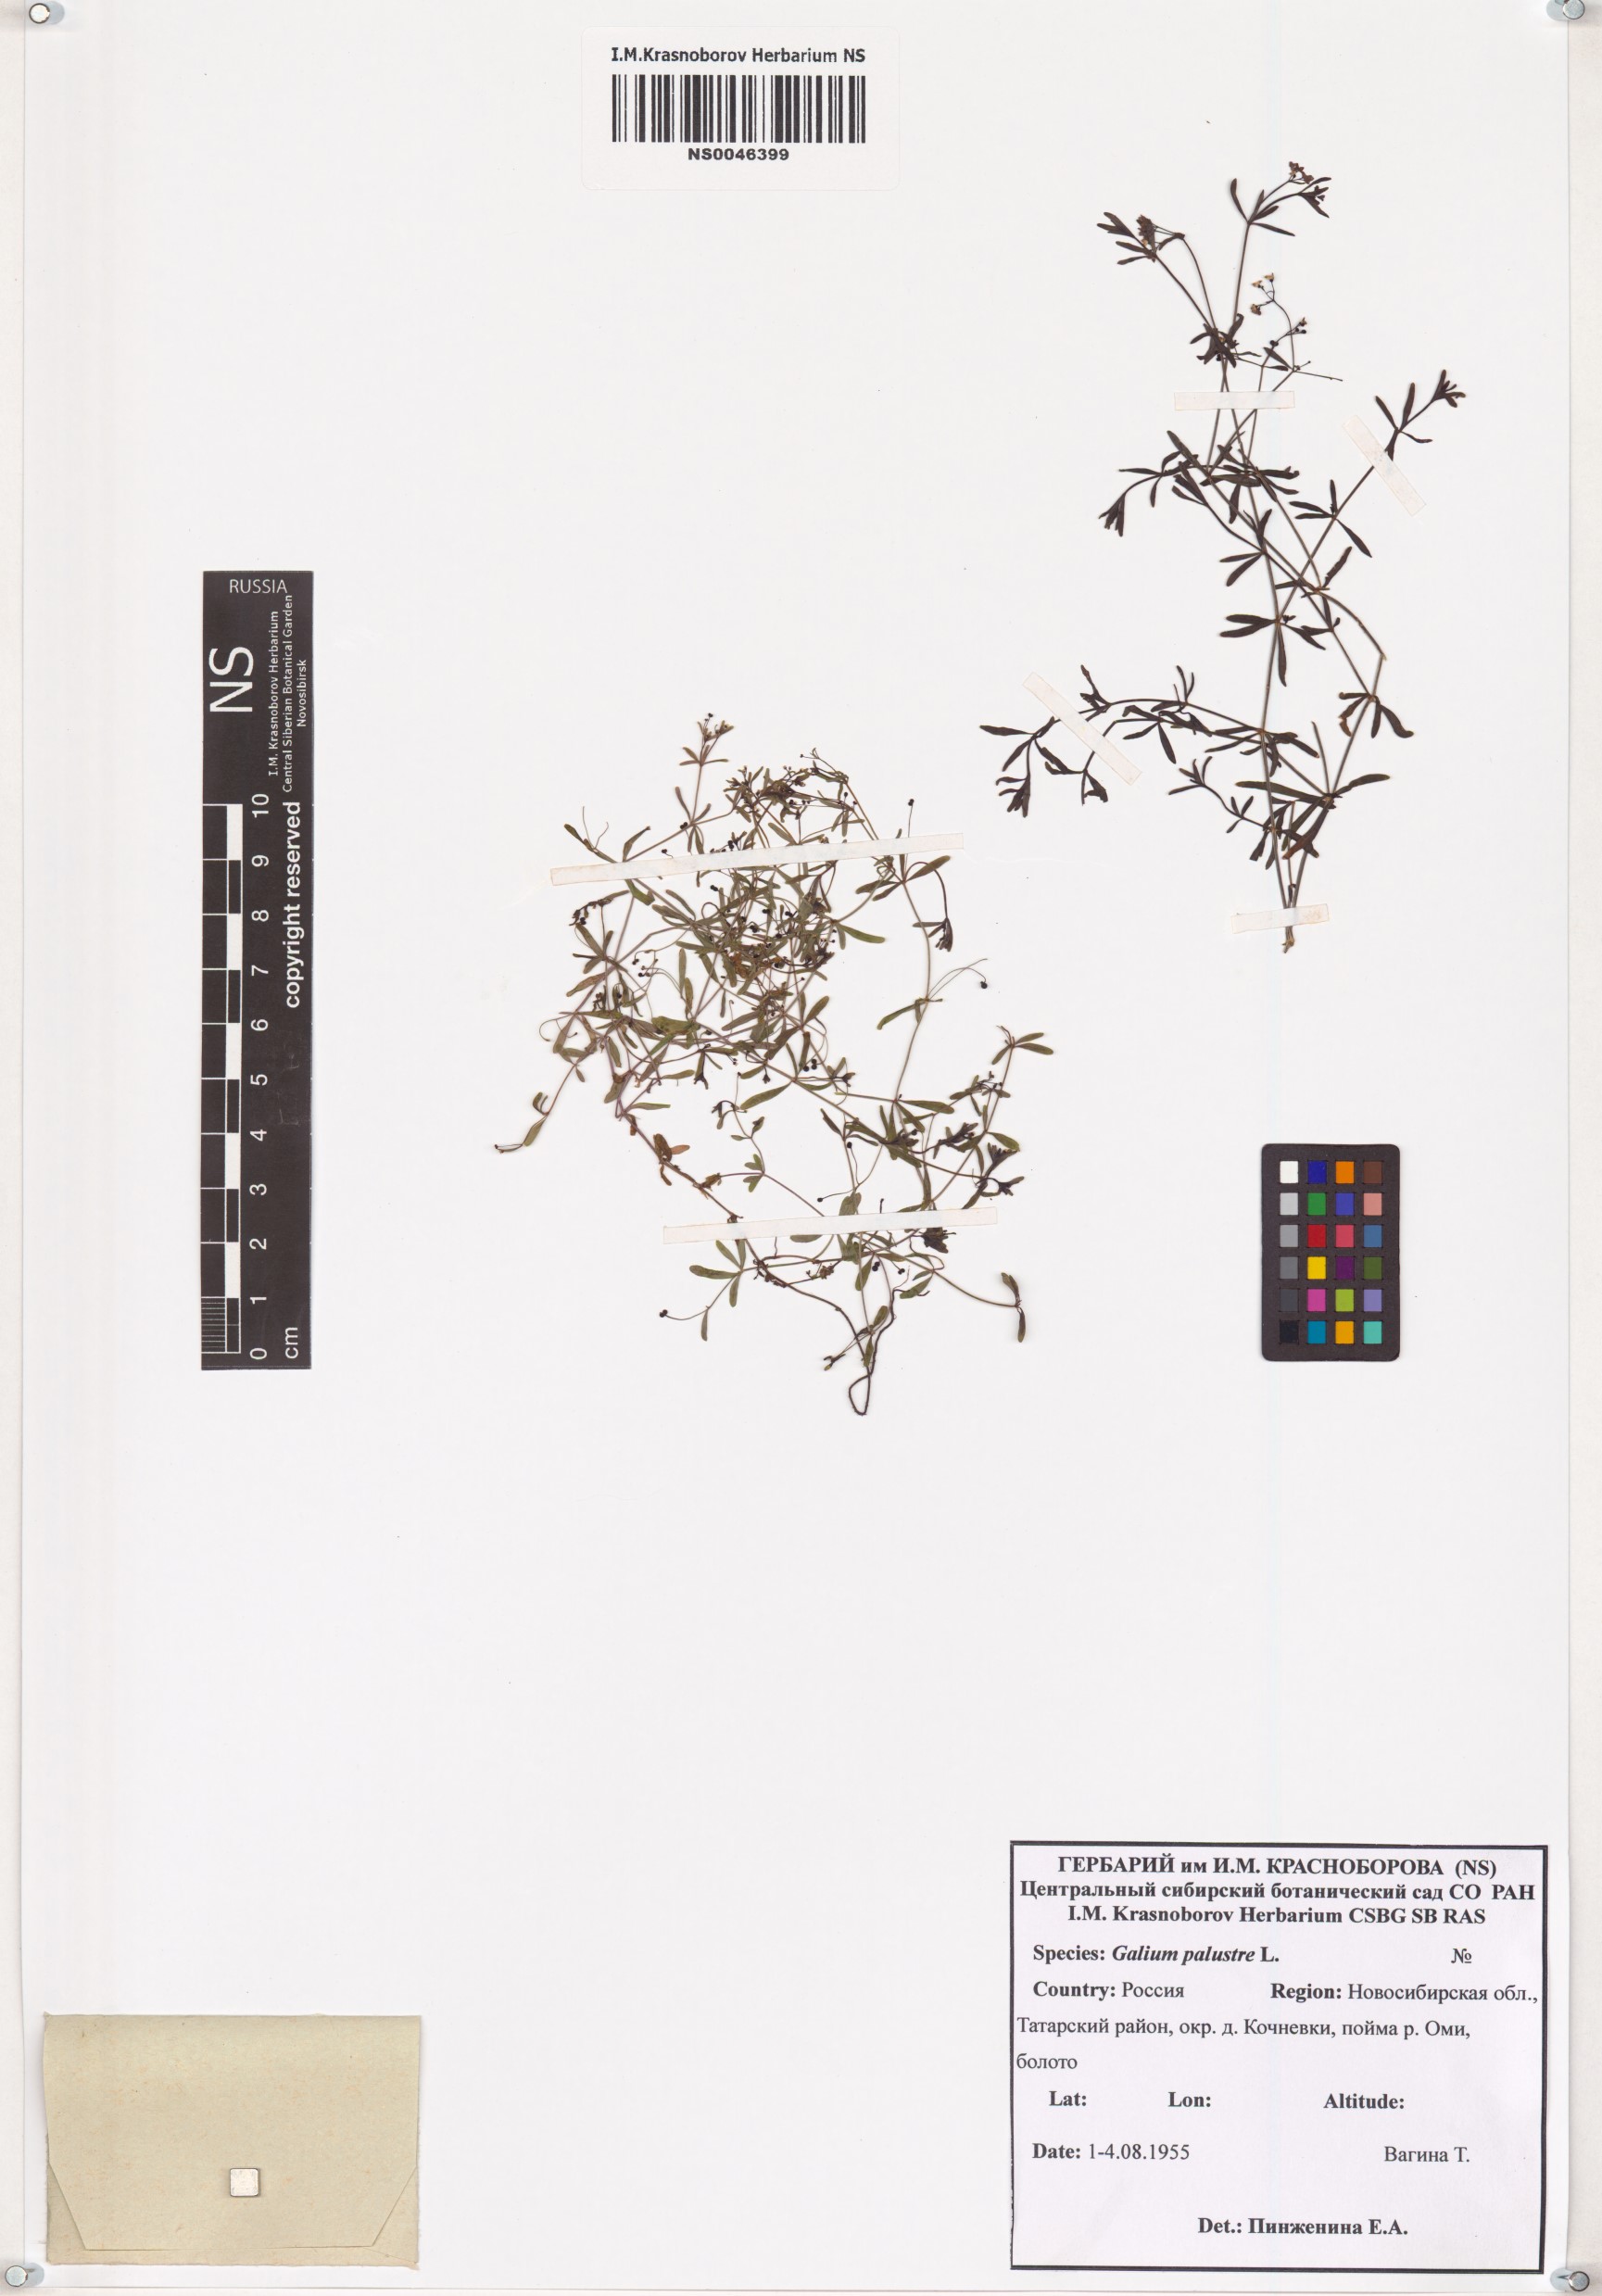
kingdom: Plantae
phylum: Tracheophyta
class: Magnoliopsida
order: Gentianales
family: Rubiaceae
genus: Galium
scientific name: Galium palustre
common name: Common marsh-bedstraw
